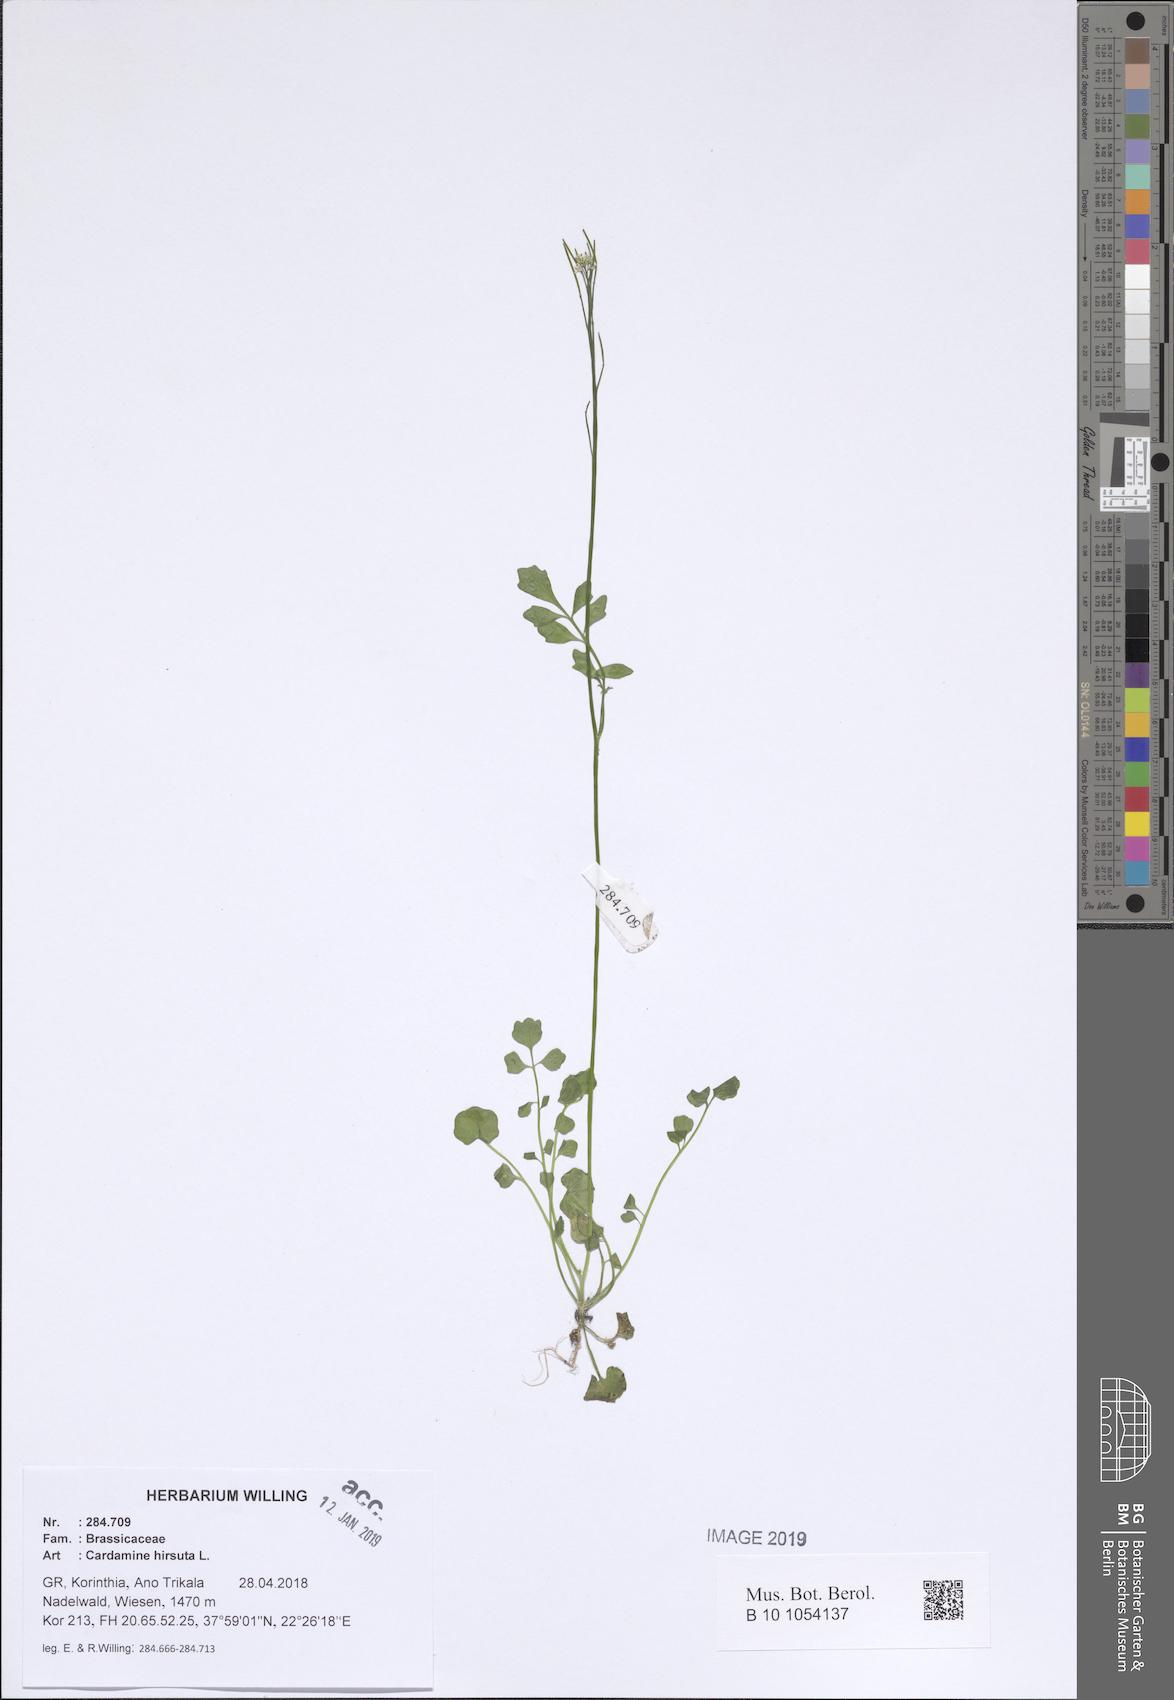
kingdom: Plantae
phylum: Tracheophyta
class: Magnoliopsida
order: Brassicales
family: Brassicaceae
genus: Cardamine
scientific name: Cardamine hirsuta
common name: Hairy bittercress
